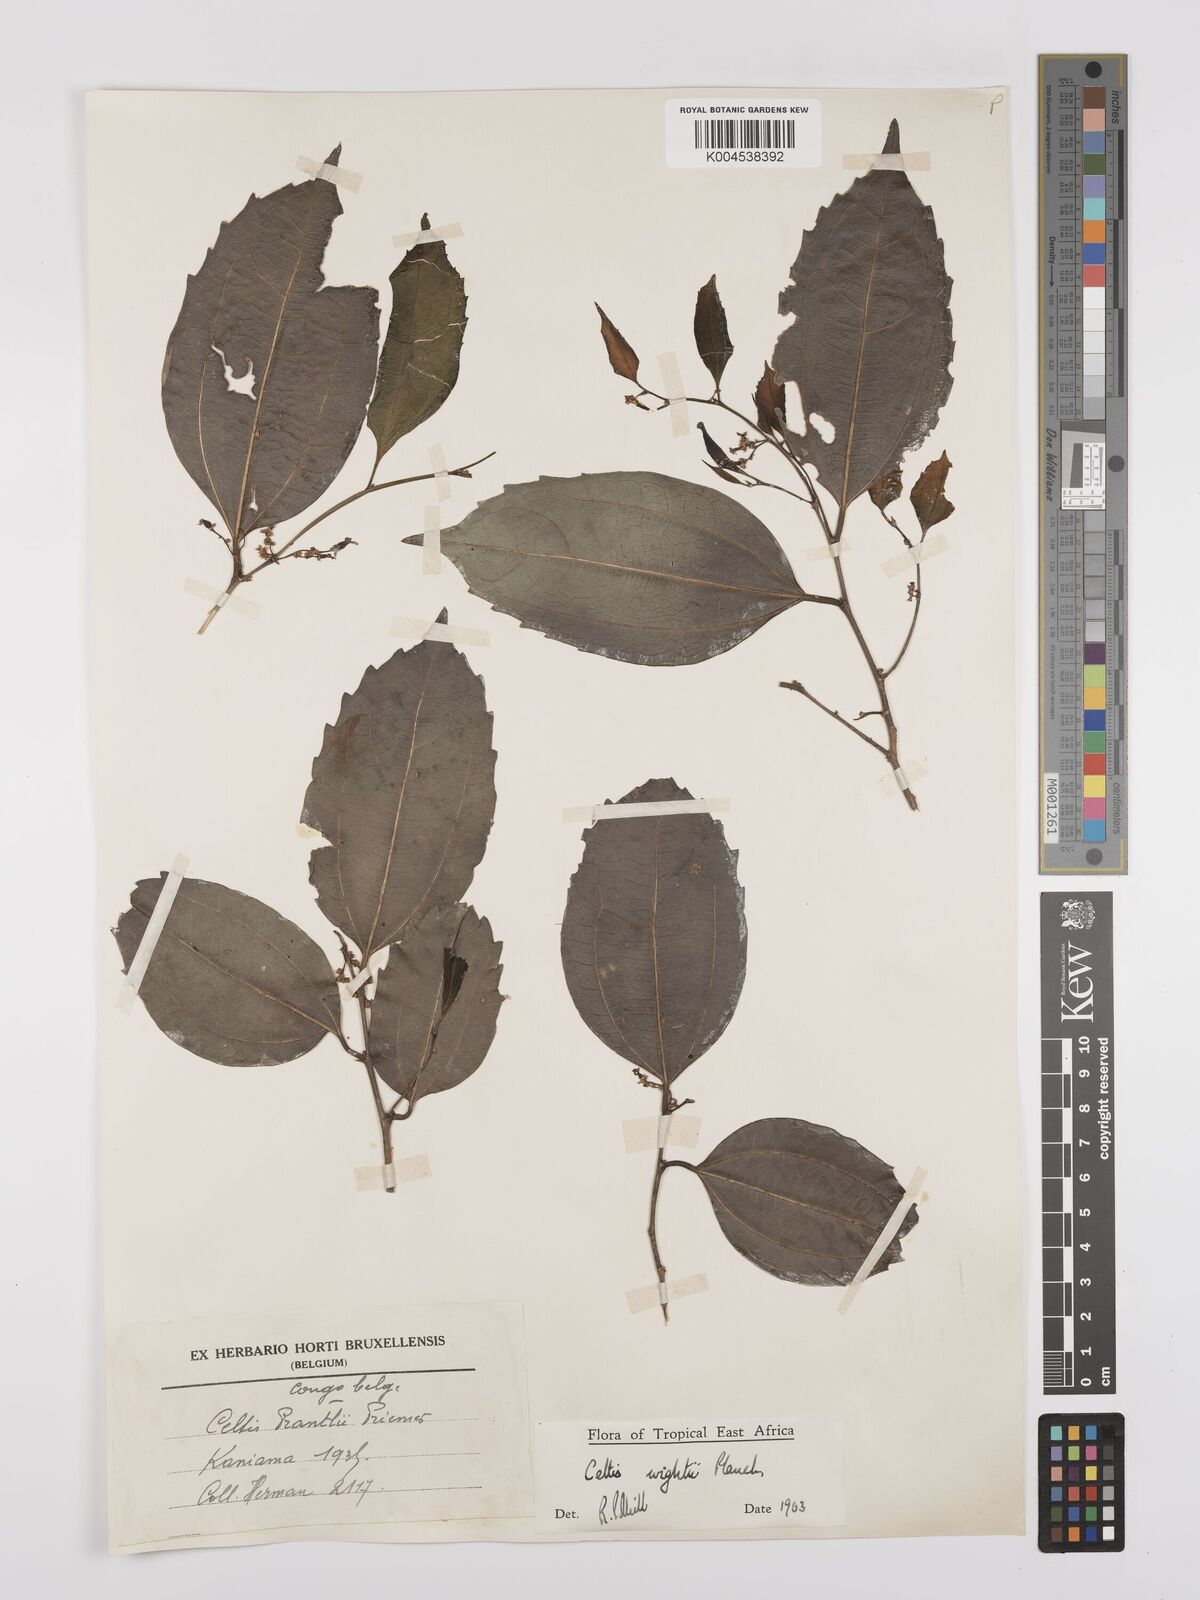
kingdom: Plantae
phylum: Tracheophyta
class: Magnoliopsida
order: Rosales
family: Cannabaceae
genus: Celtis
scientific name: Celtis philippensis
